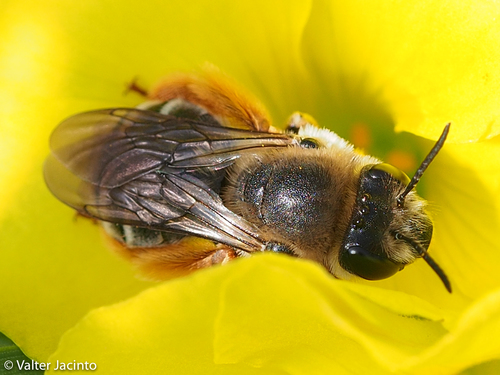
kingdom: Animalia
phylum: Arthropoda
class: Insecta
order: Hymenoptera
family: Apidae
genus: Eucera
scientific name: Eucera sogdiana
